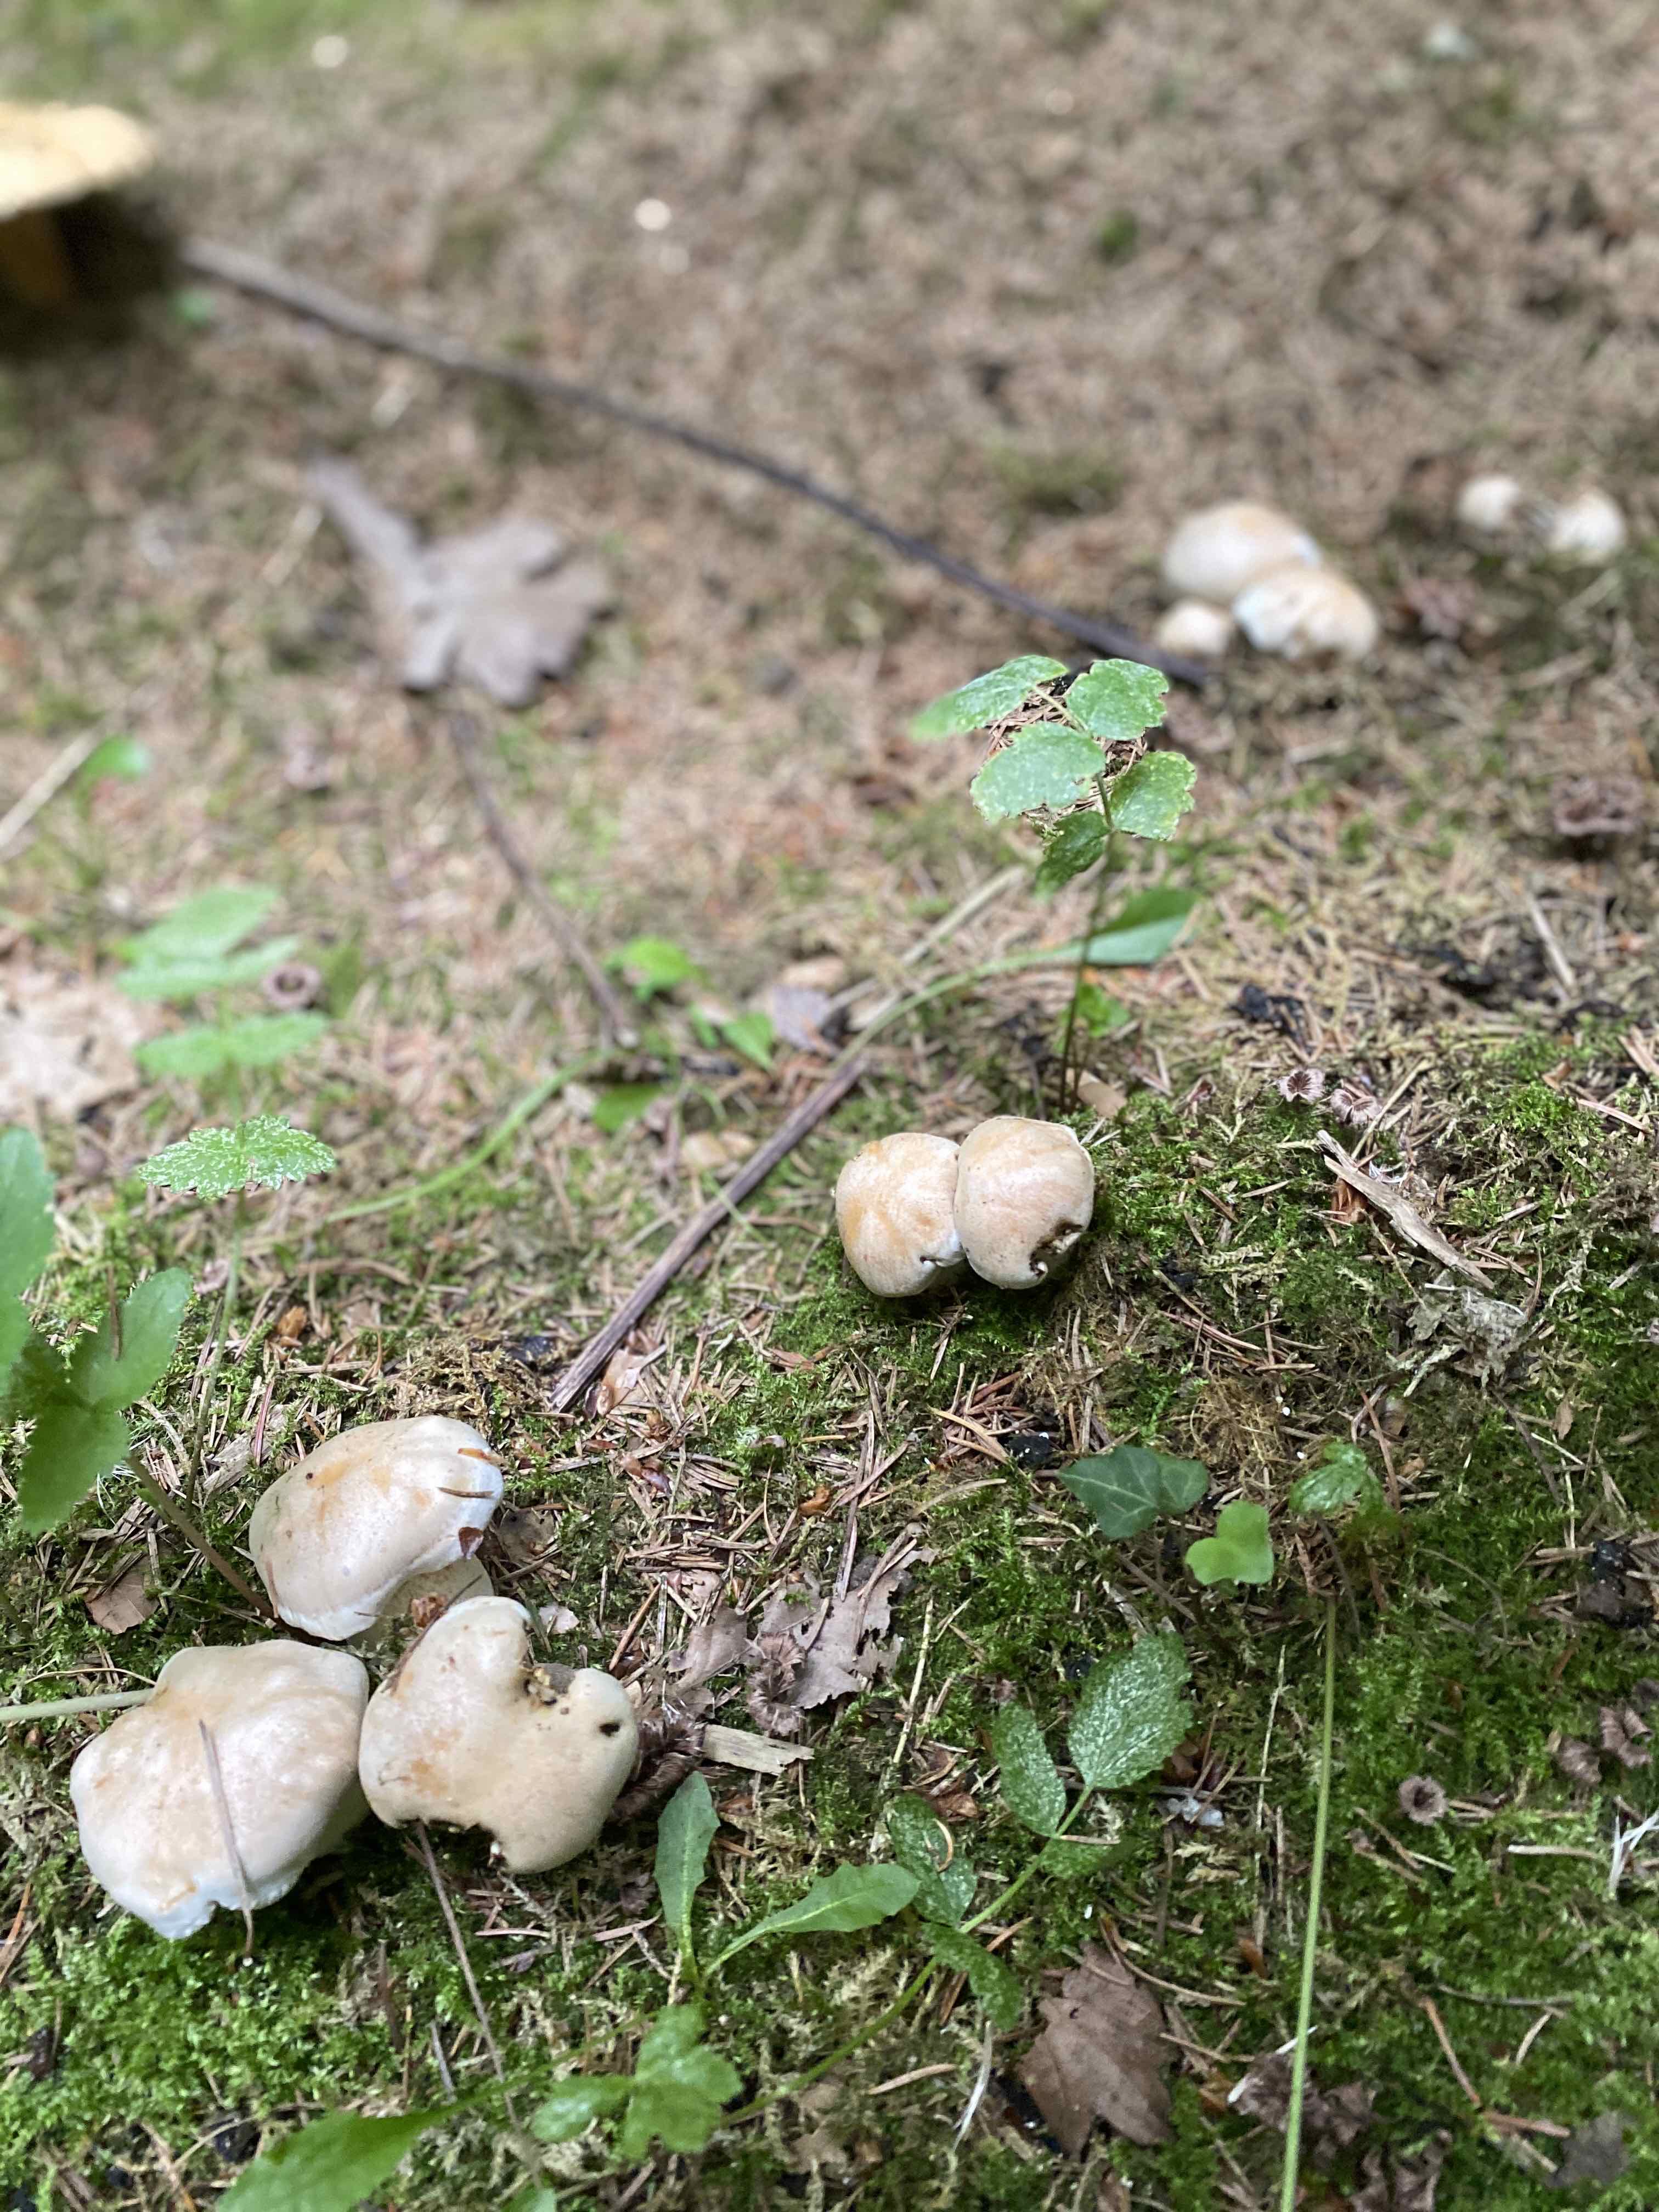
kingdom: Fungi
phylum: Basidiomycota
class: Agaricomycetes
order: Agaricales
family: Hymenogastraceae
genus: Hebeloma
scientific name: Hebeloma
